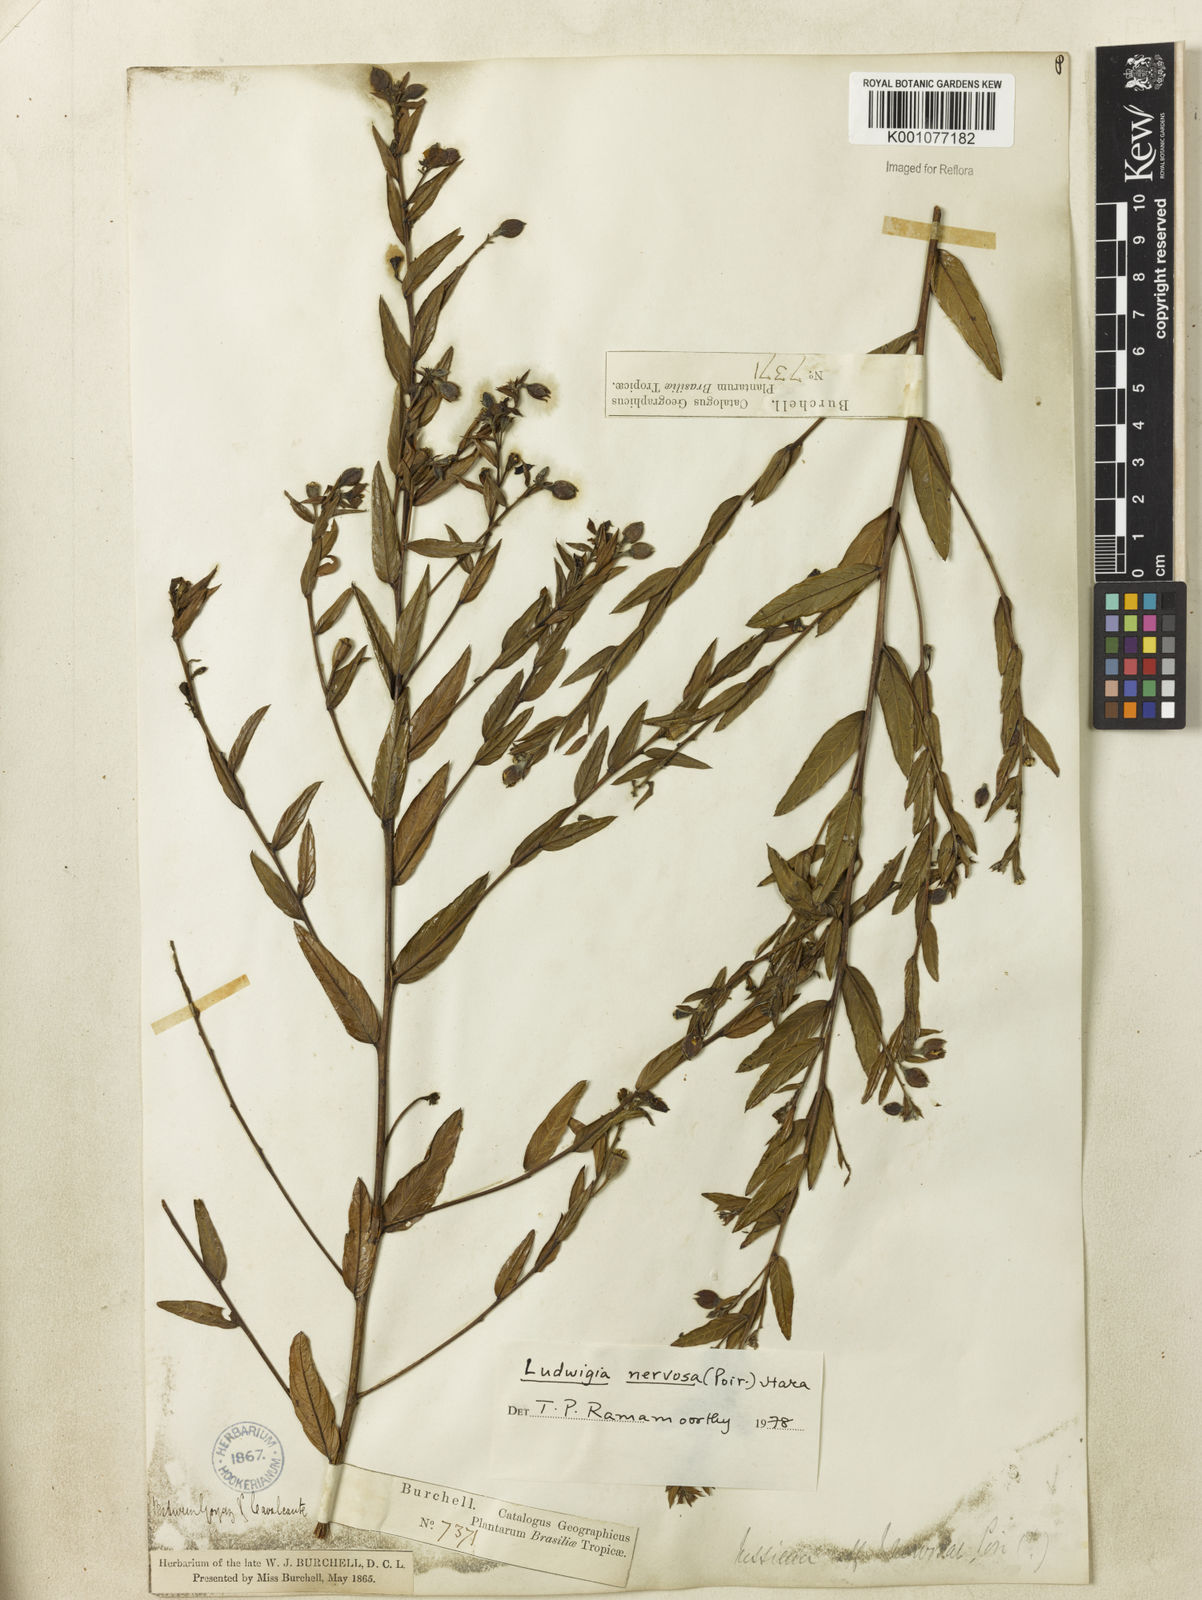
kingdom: Plantae
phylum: Tracheophyta
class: Magnoliopsida
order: Myrtales
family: Onagraceae
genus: Ludwigia
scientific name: Ludwigia nervosa
